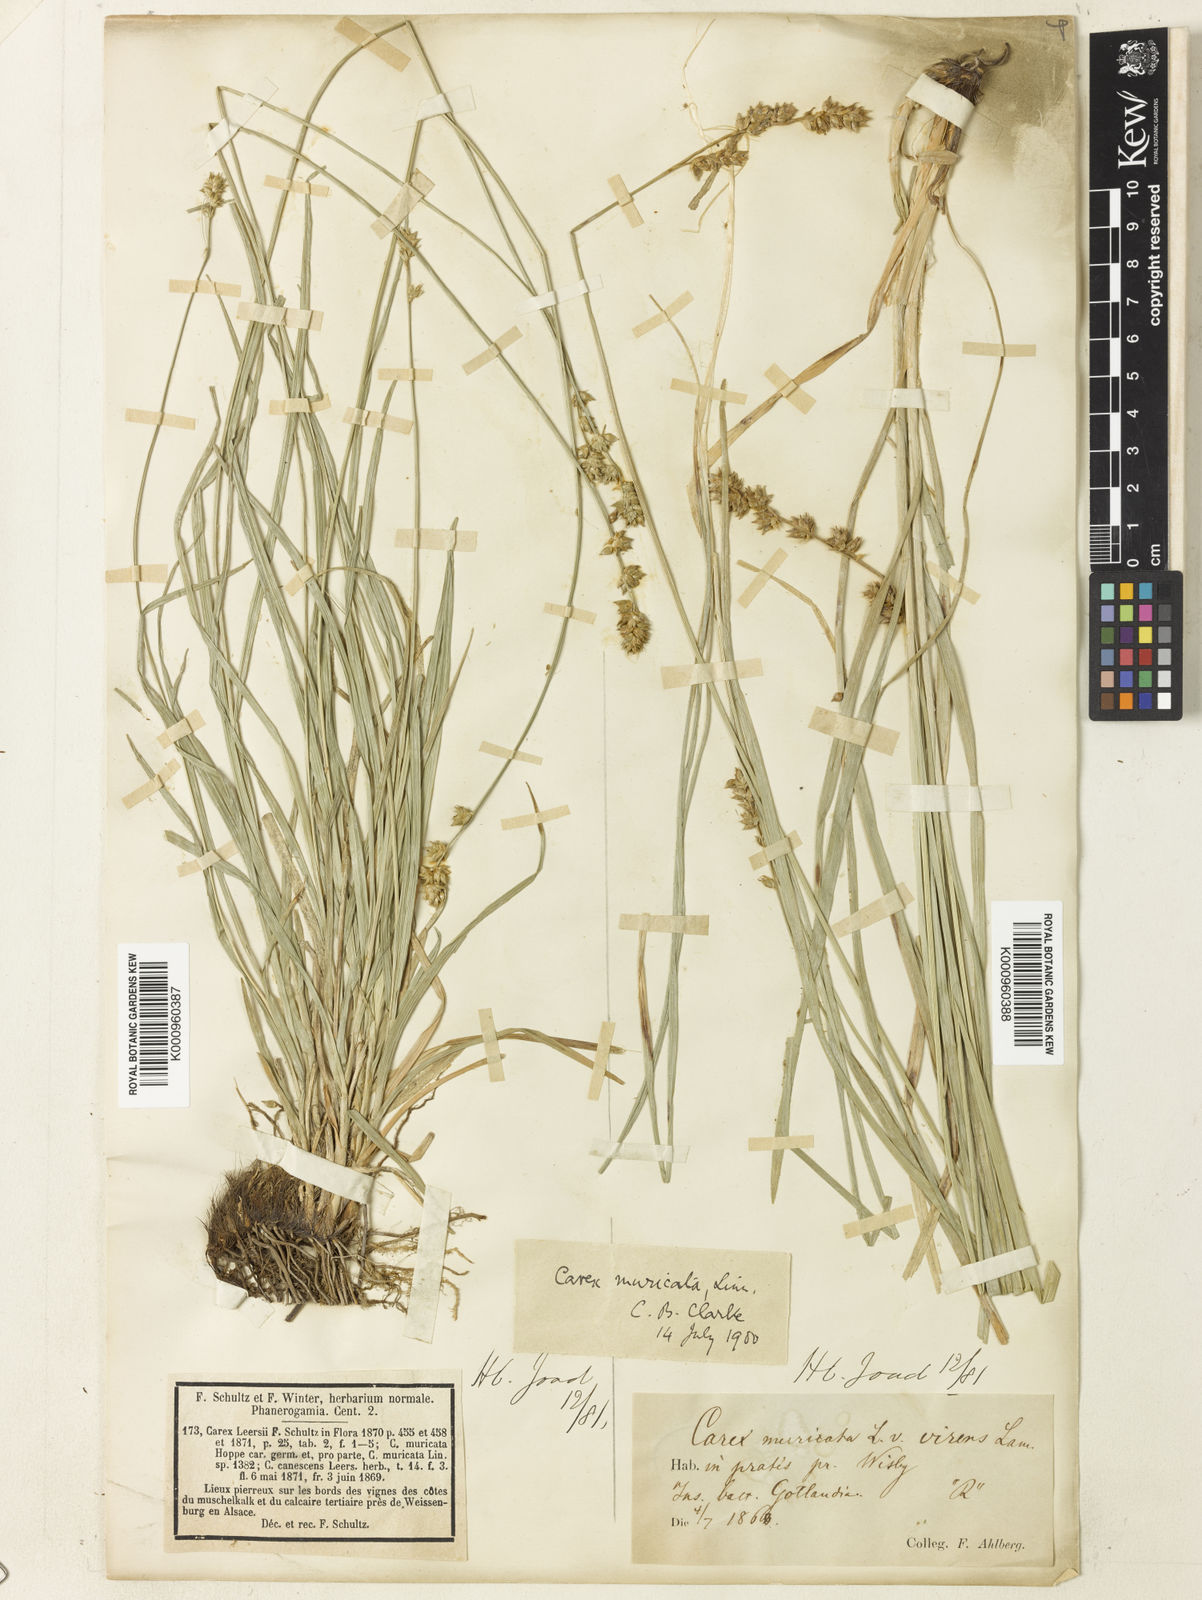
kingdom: Plantae
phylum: Tracheophyta
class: Liliopsida
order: Poales
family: Cyperaceae
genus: Carex
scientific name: Carex divulsa
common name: Grassland sedge
